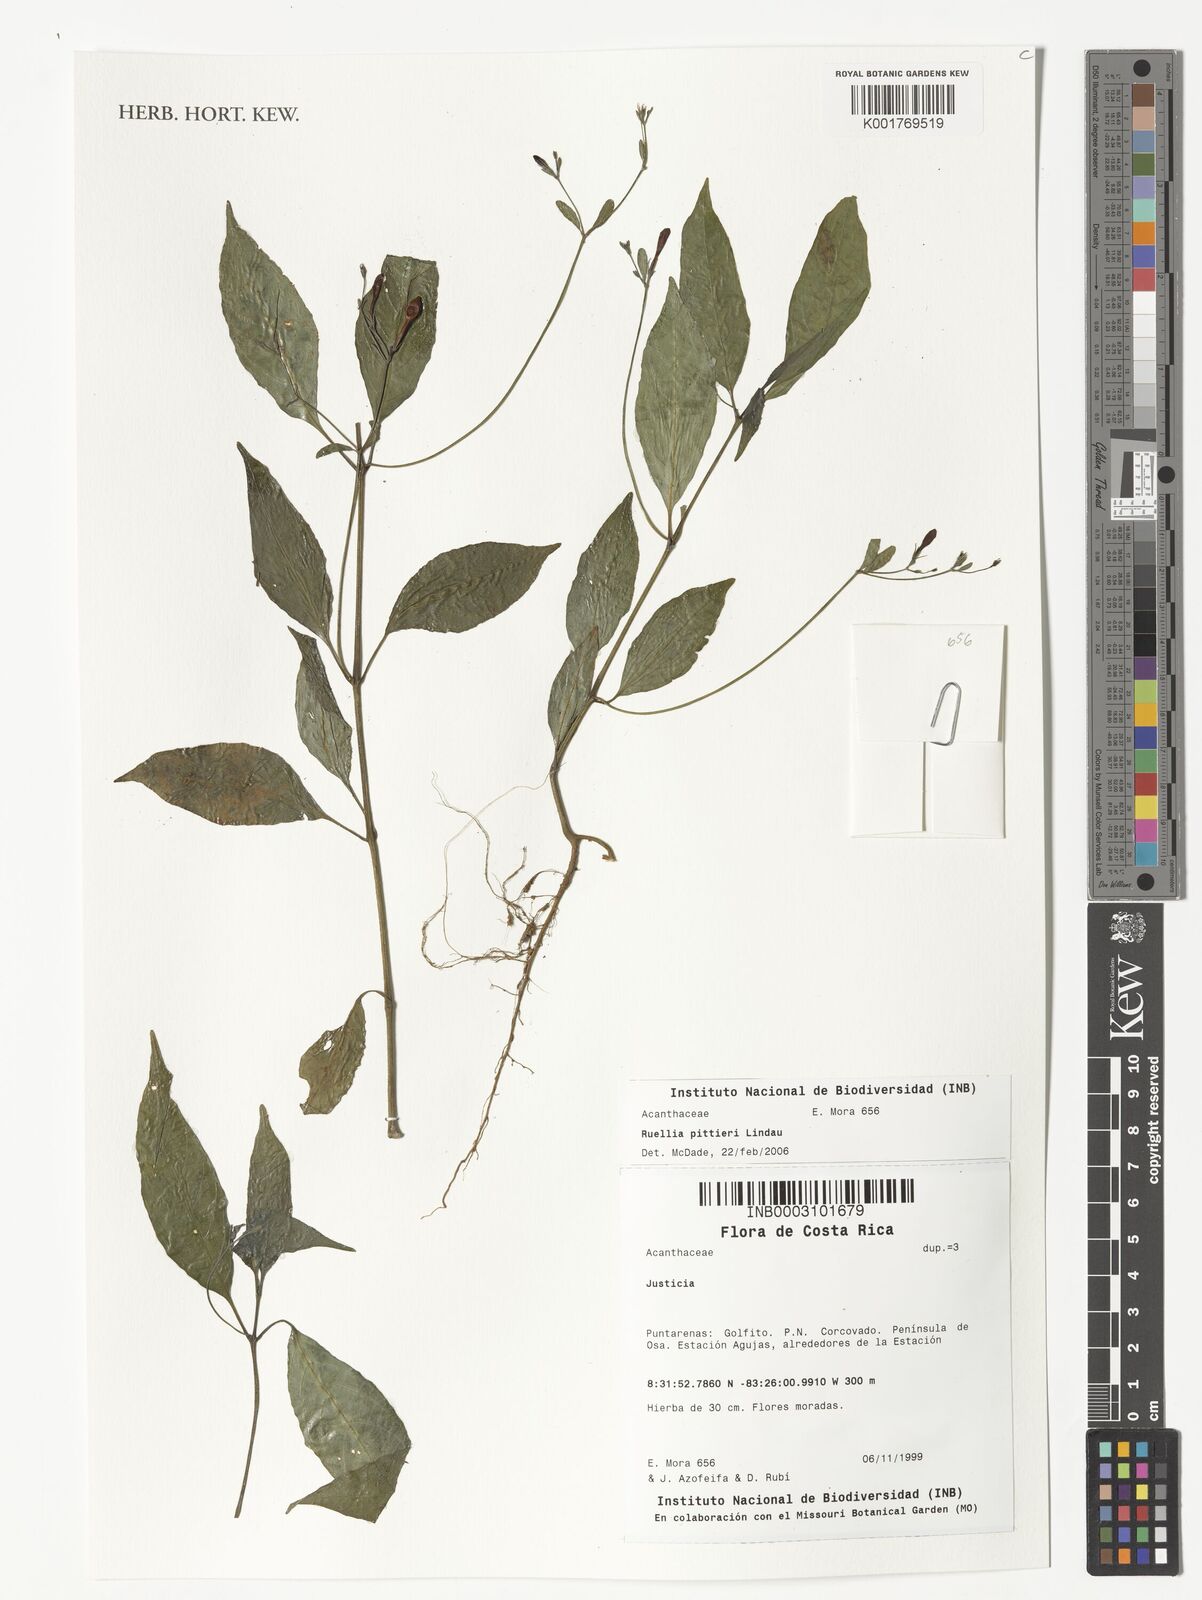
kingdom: Plantae
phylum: Tracheophyta
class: Magnoliopsida
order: Lamiales
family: Acanthaceae
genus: Ruellia
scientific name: Ruellia pittieri
